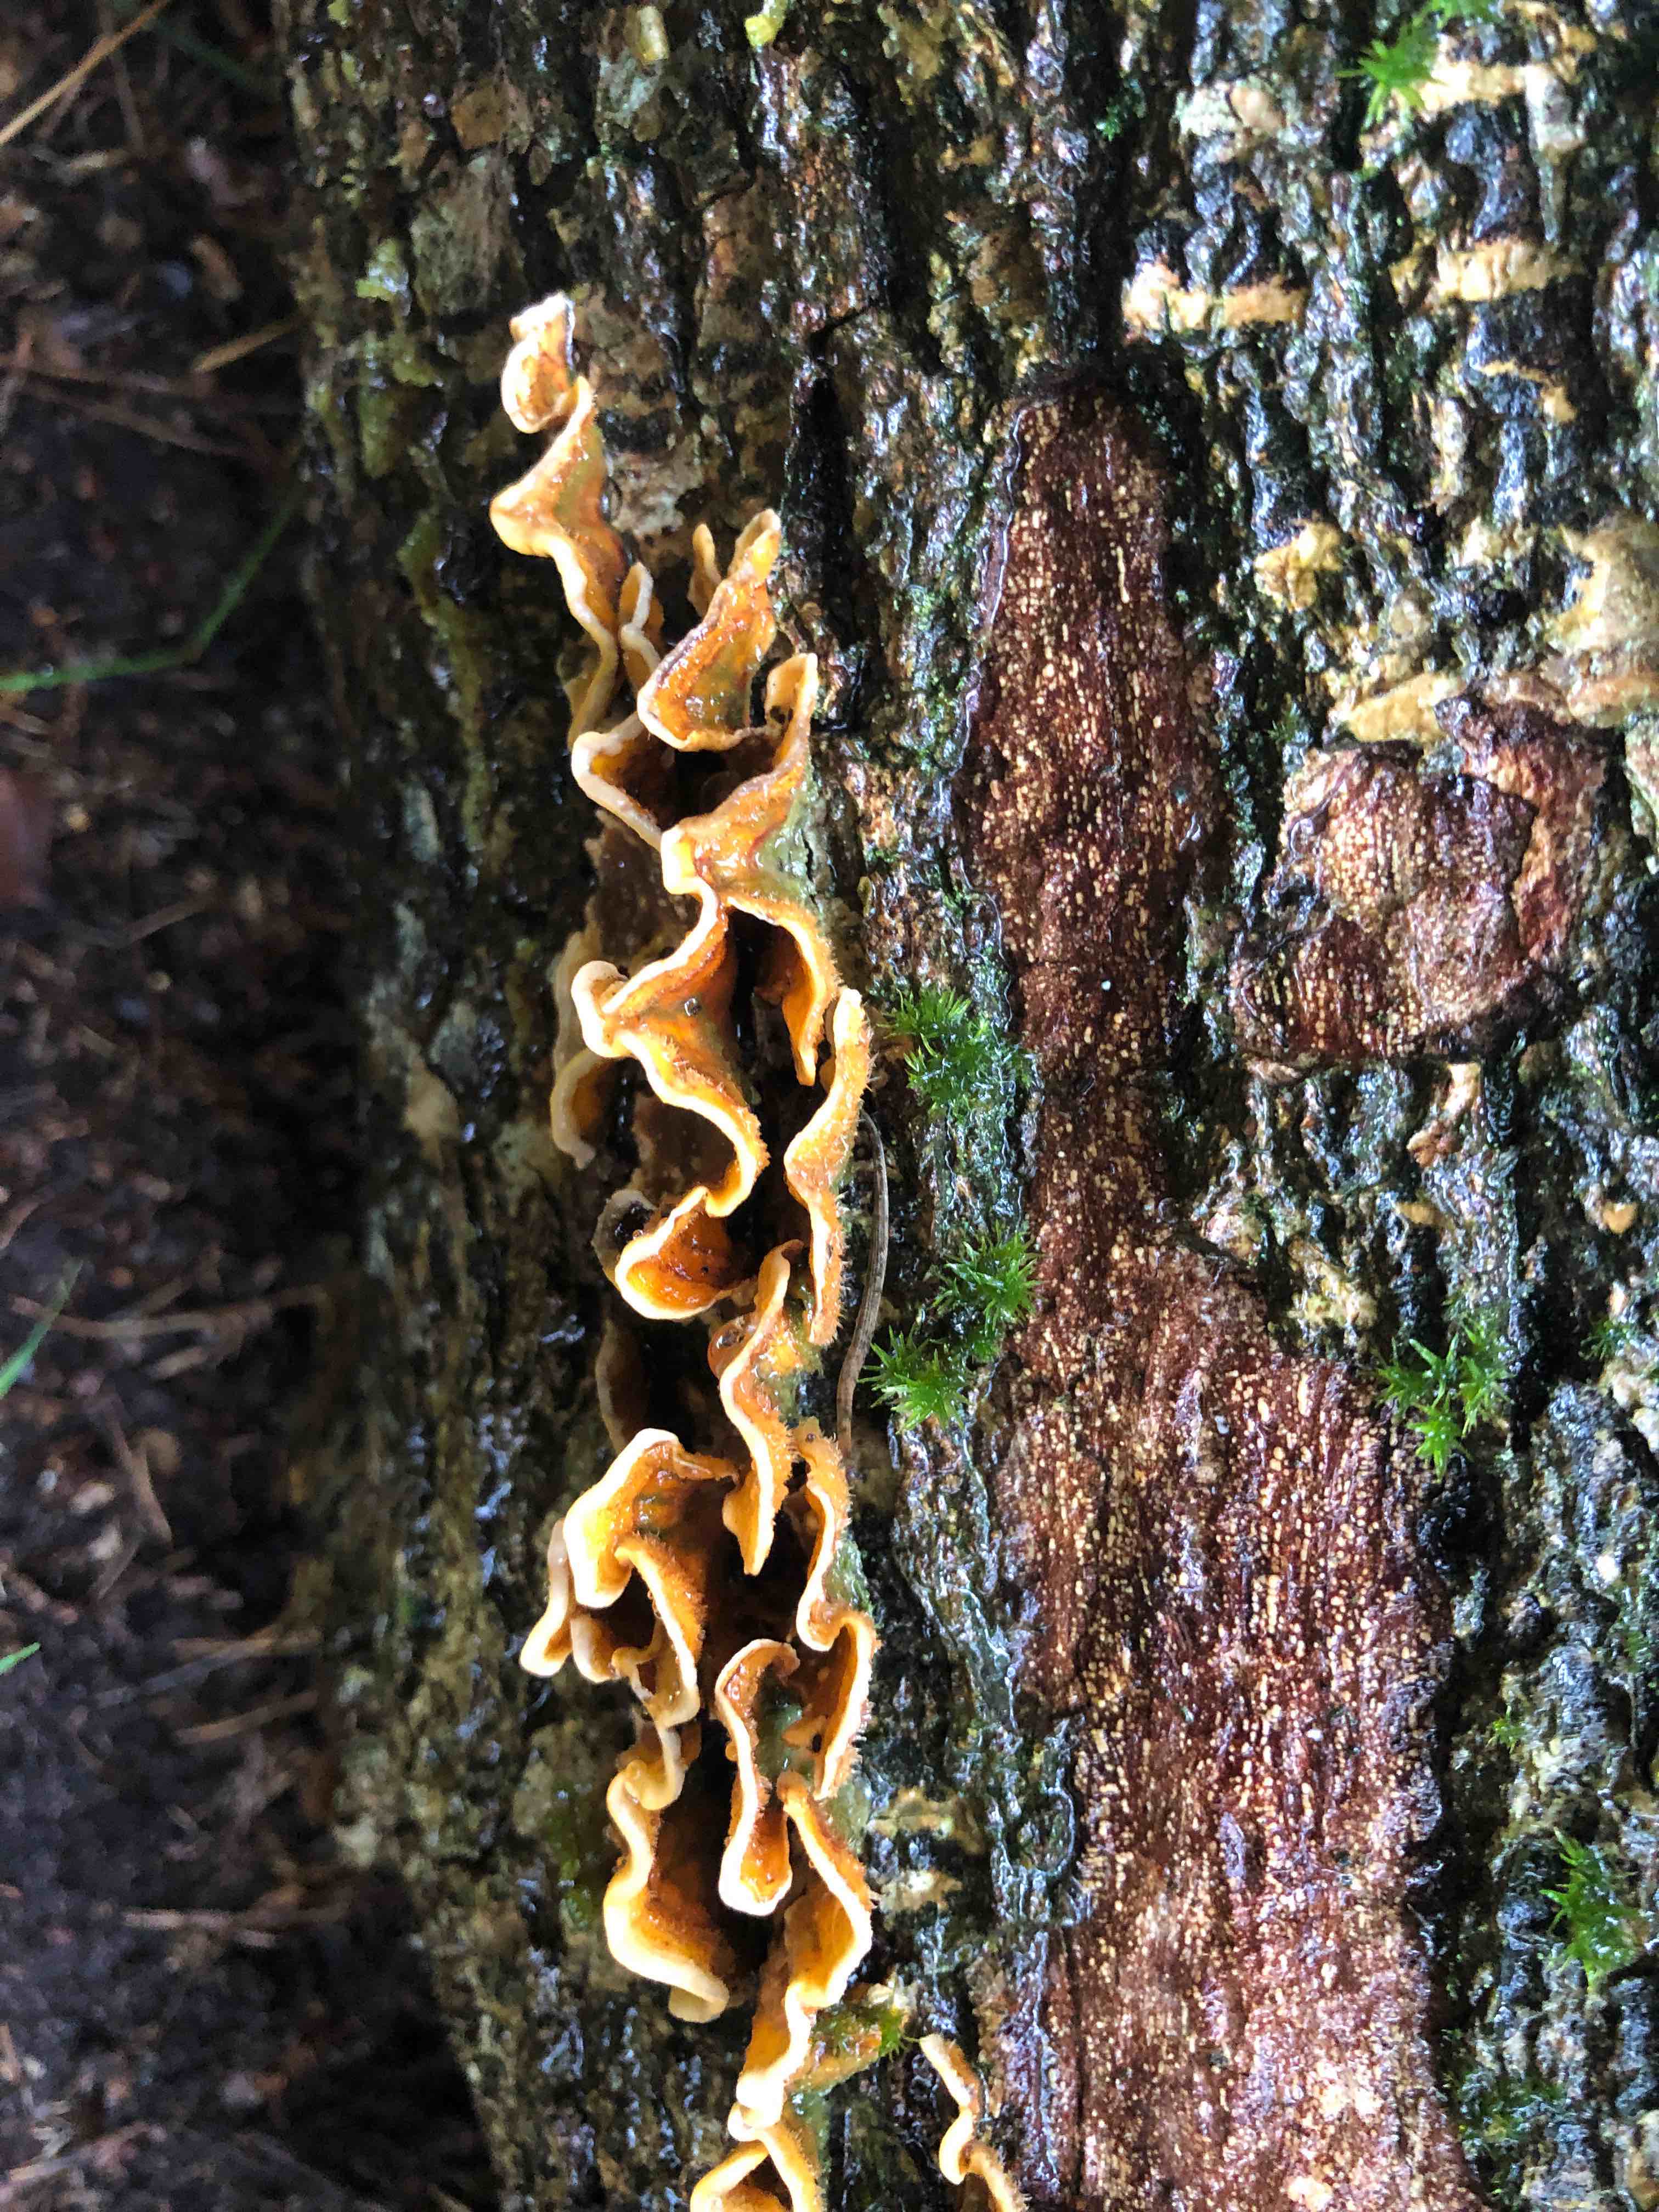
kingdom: Fungi
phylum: Basidiomycota
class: Agaricomycetes
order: Russulales
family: Stereaceae
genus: Stereum
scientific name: Stereum hirsutum
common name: håret lædersvamp
